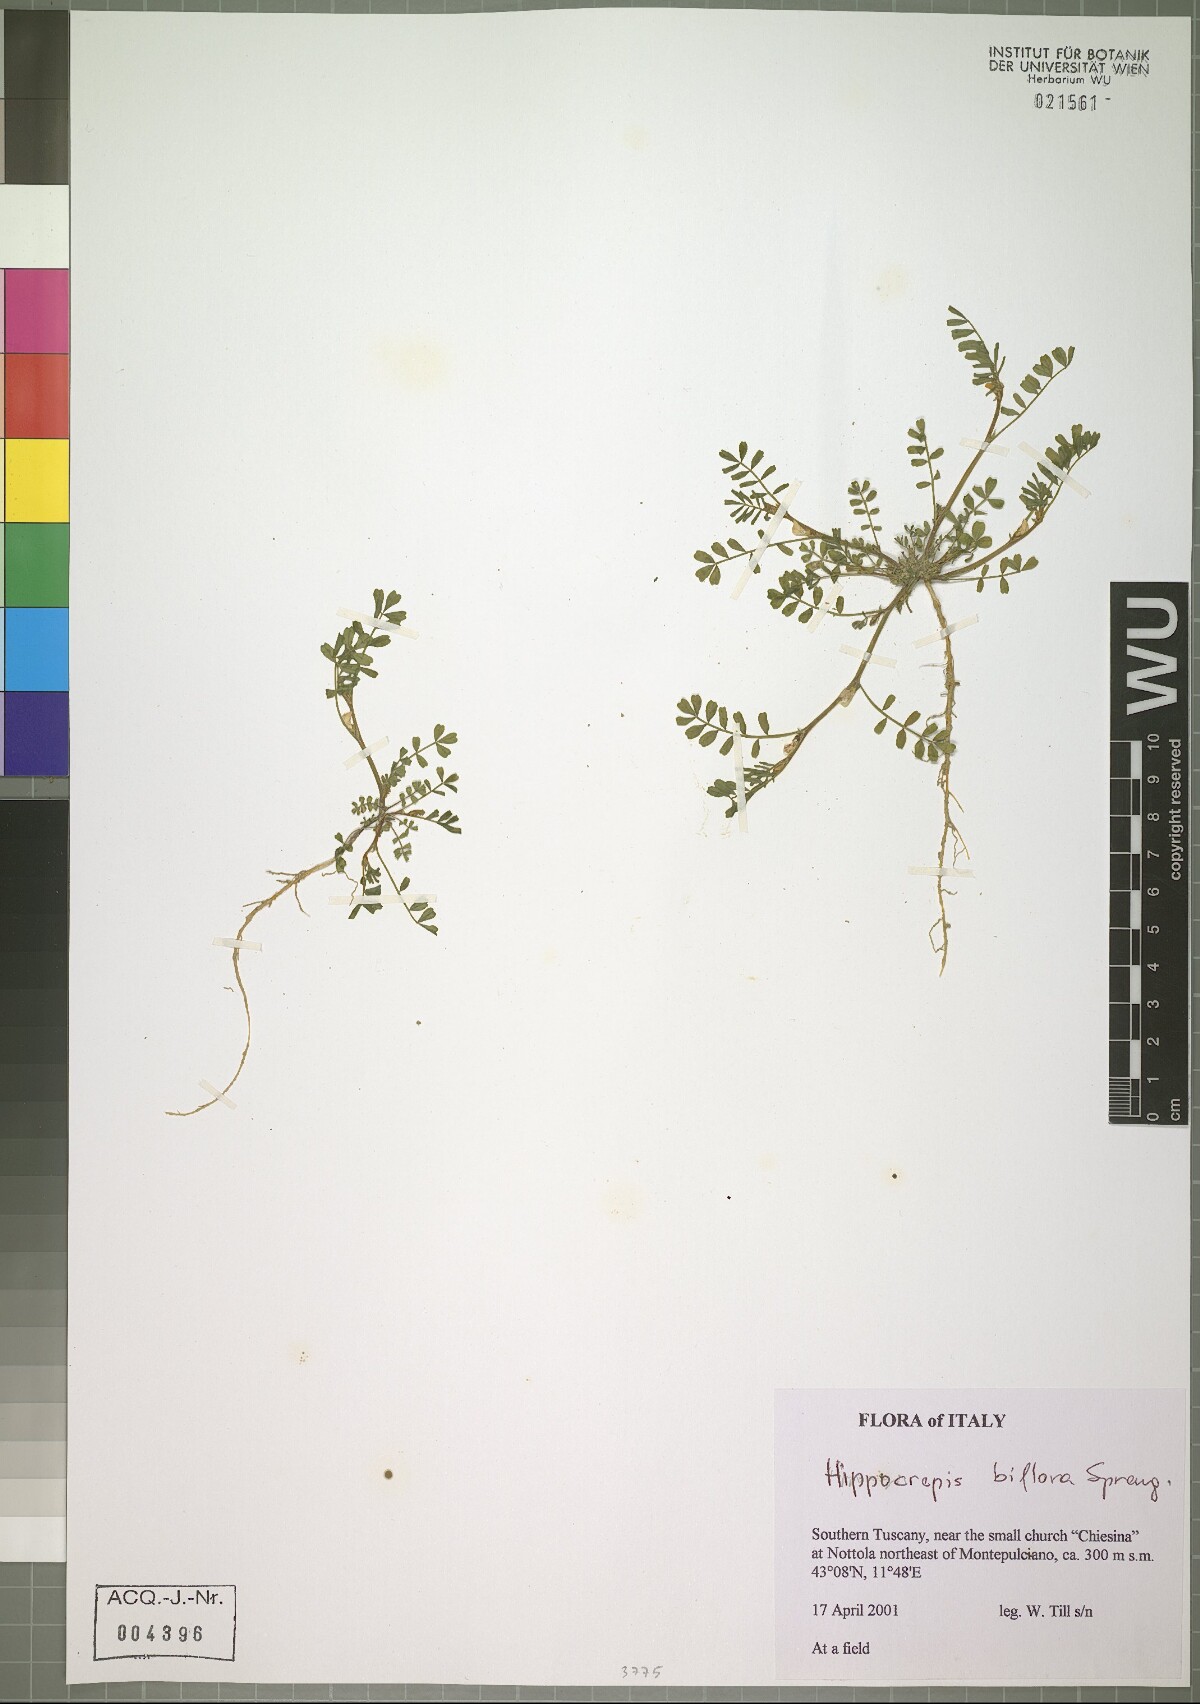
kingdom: Plantae
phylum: Tracheophyta
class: Magnoliopsida
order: Fabales
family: Fabaceae
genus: Hippocrepis
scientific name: Hippocrepis biflora
